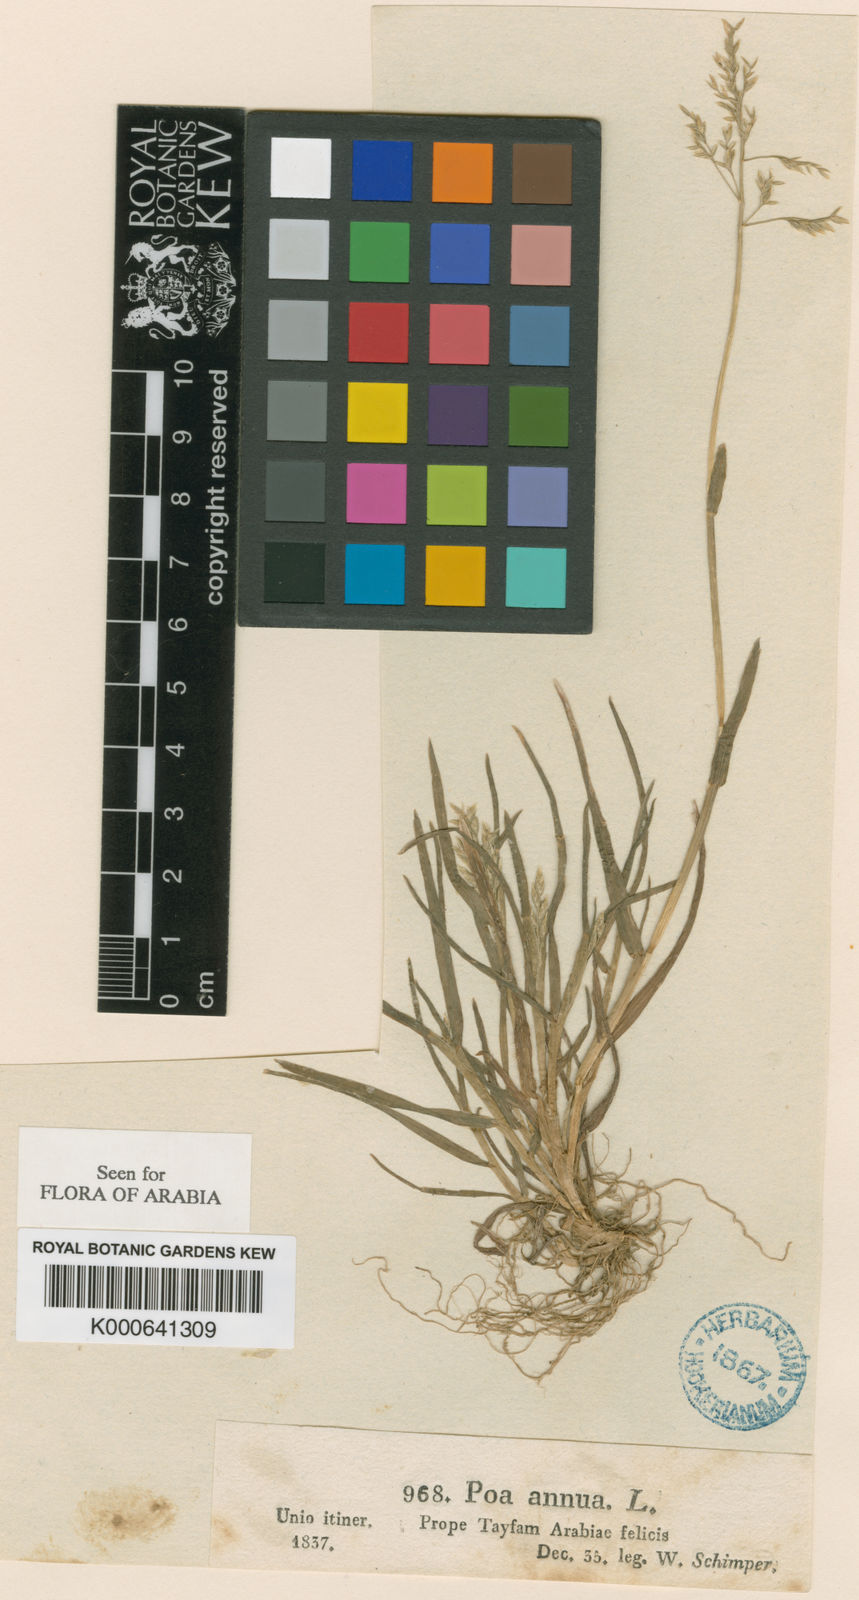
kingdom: Plantae
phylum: Tracheophyta
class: Liliopsida
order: Poales
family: Poaceae
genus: Poa
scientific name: Poa annua
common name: Annual bluegrass
